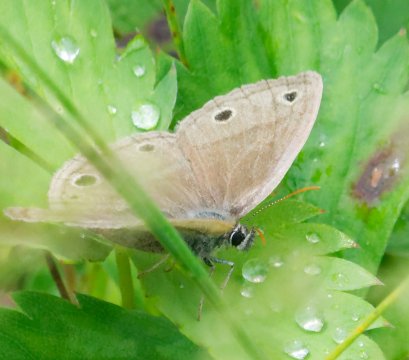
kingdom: Animalia
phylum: Arthropoda
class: Insecta
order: Lepidoptera
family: Nymphalidae
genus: Euptychia
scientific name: Euptychia cymela
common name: Little Wood Satyr
